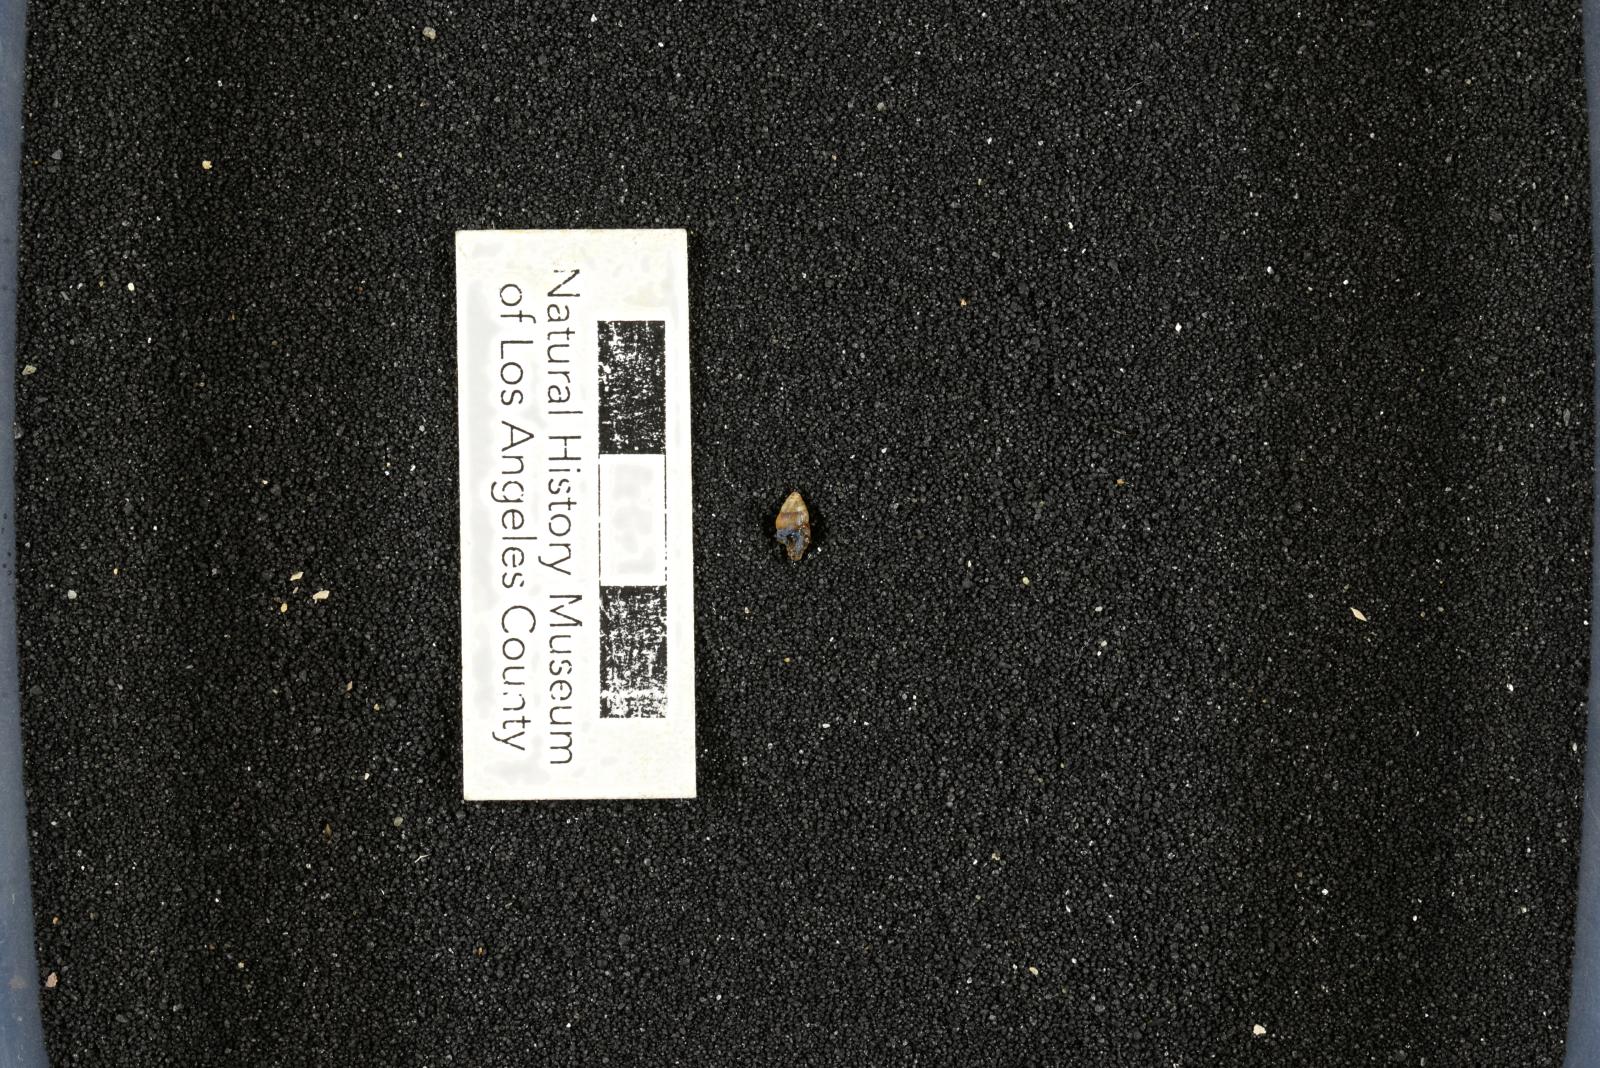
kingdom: Animalia
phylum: Mollusca
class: Gastropoda
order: Littorinimorpha
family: Aporrhaidae
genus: Latiala
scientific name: Latiala heliaca
